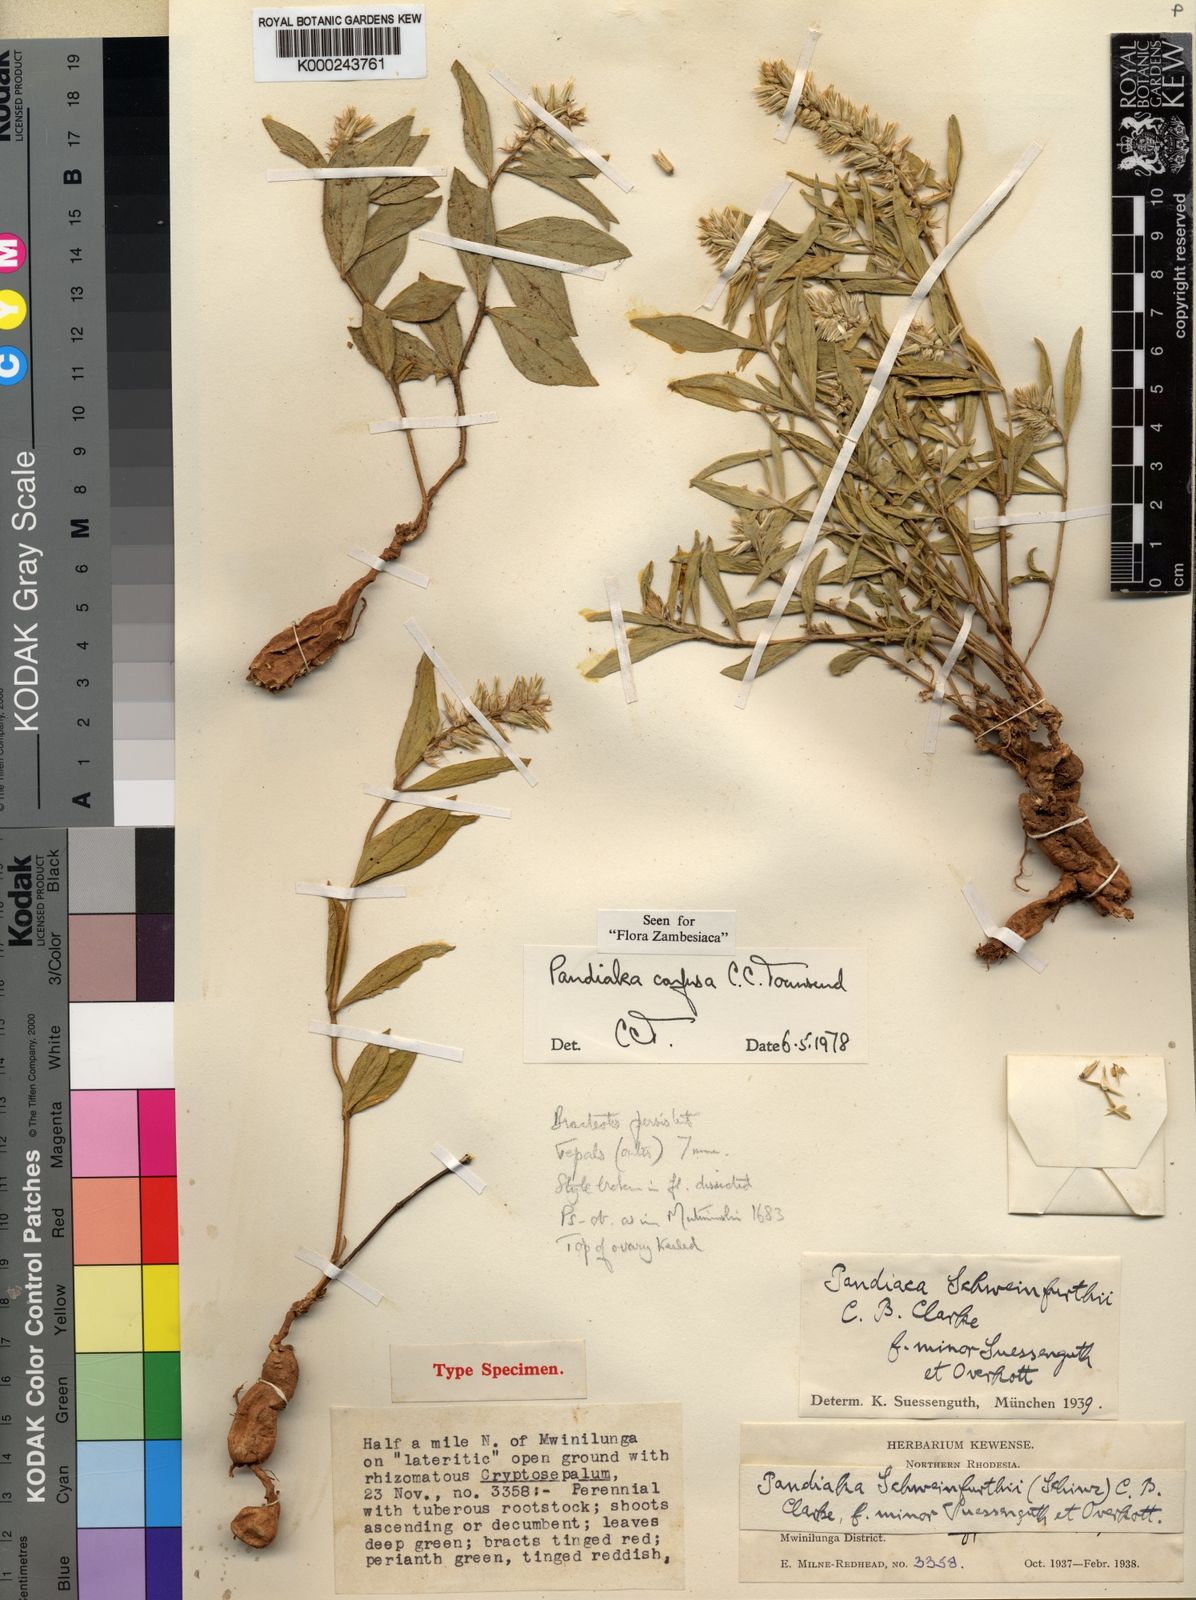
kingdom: Plantae
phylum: Tracheophyta
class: Magnoliopsida
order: Caryophyllales
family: Amaranthaceae
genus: Pandiaka
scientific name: Pandiaka confusa
